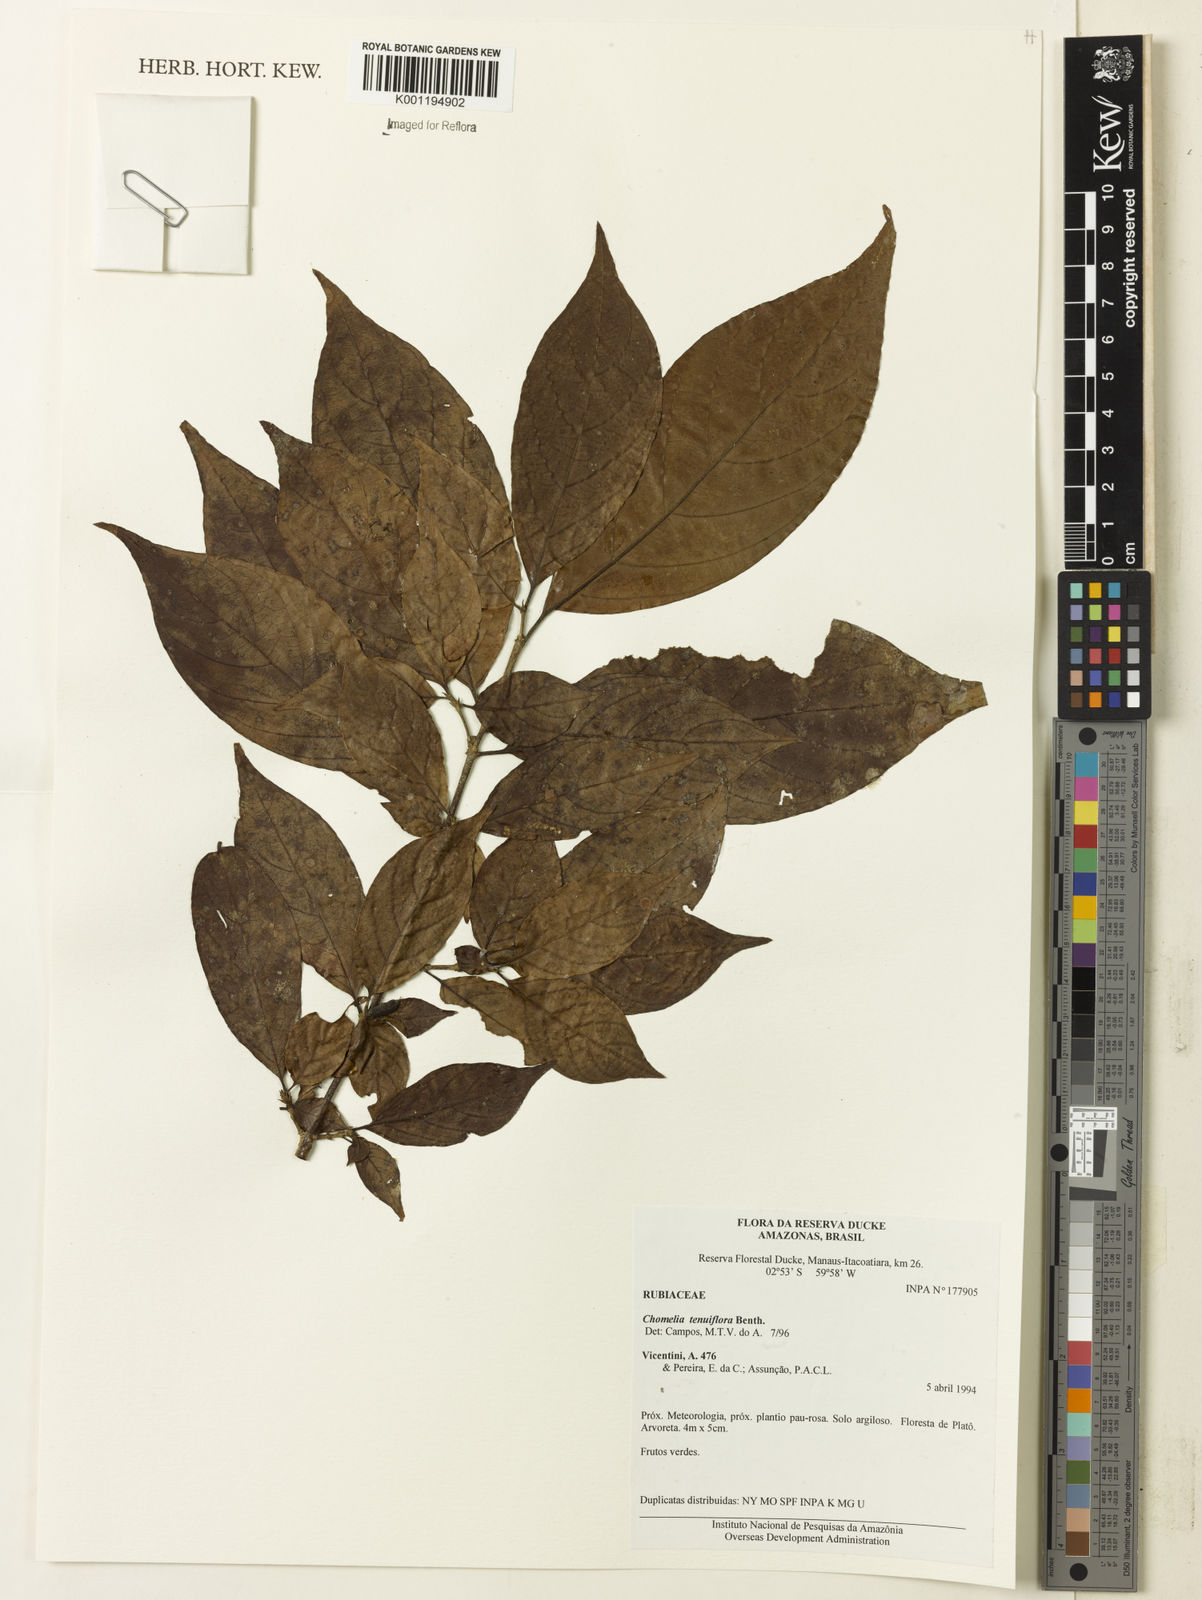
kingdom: Plantae
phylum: Tracheophyta
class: Magnoliopsida
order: Gentianales
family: Rubiaceae
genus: Chomelia
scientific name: Chomelia tenuiflora
